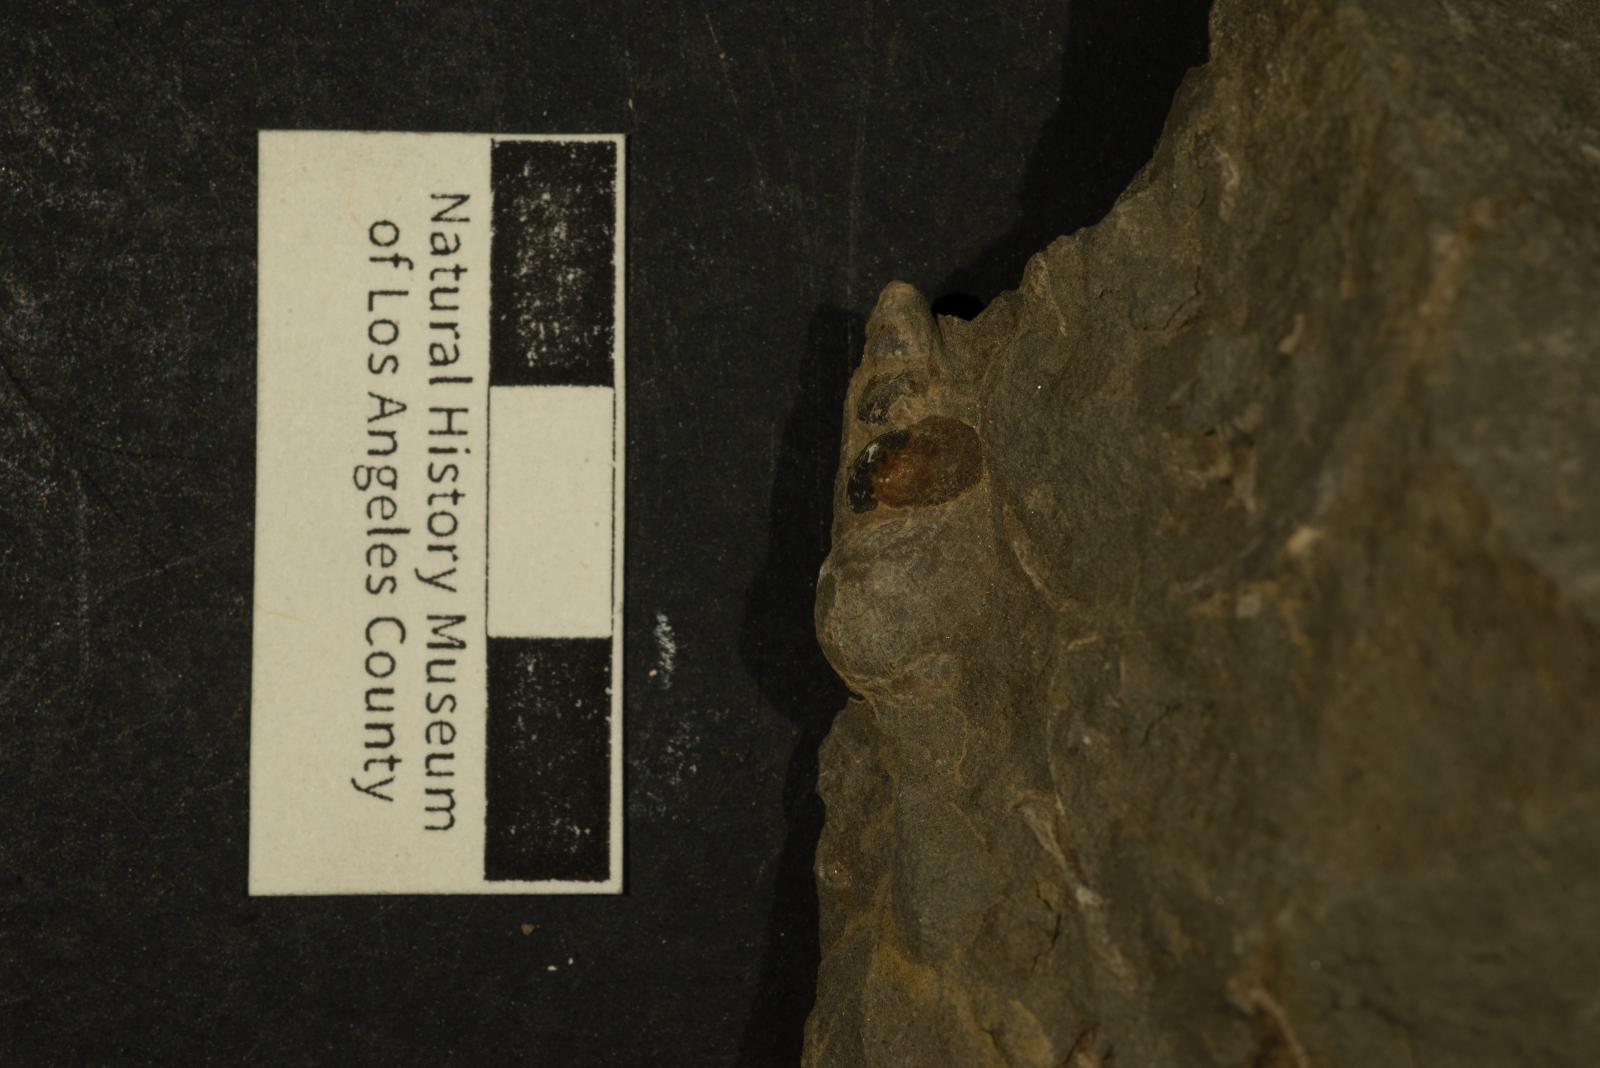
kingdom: Animalia
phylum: Mollusca
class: Gastropoda
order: Littorinimorpha
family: Aporrhaidae
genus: Tessarolax
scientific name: Tessarolax alaskana
